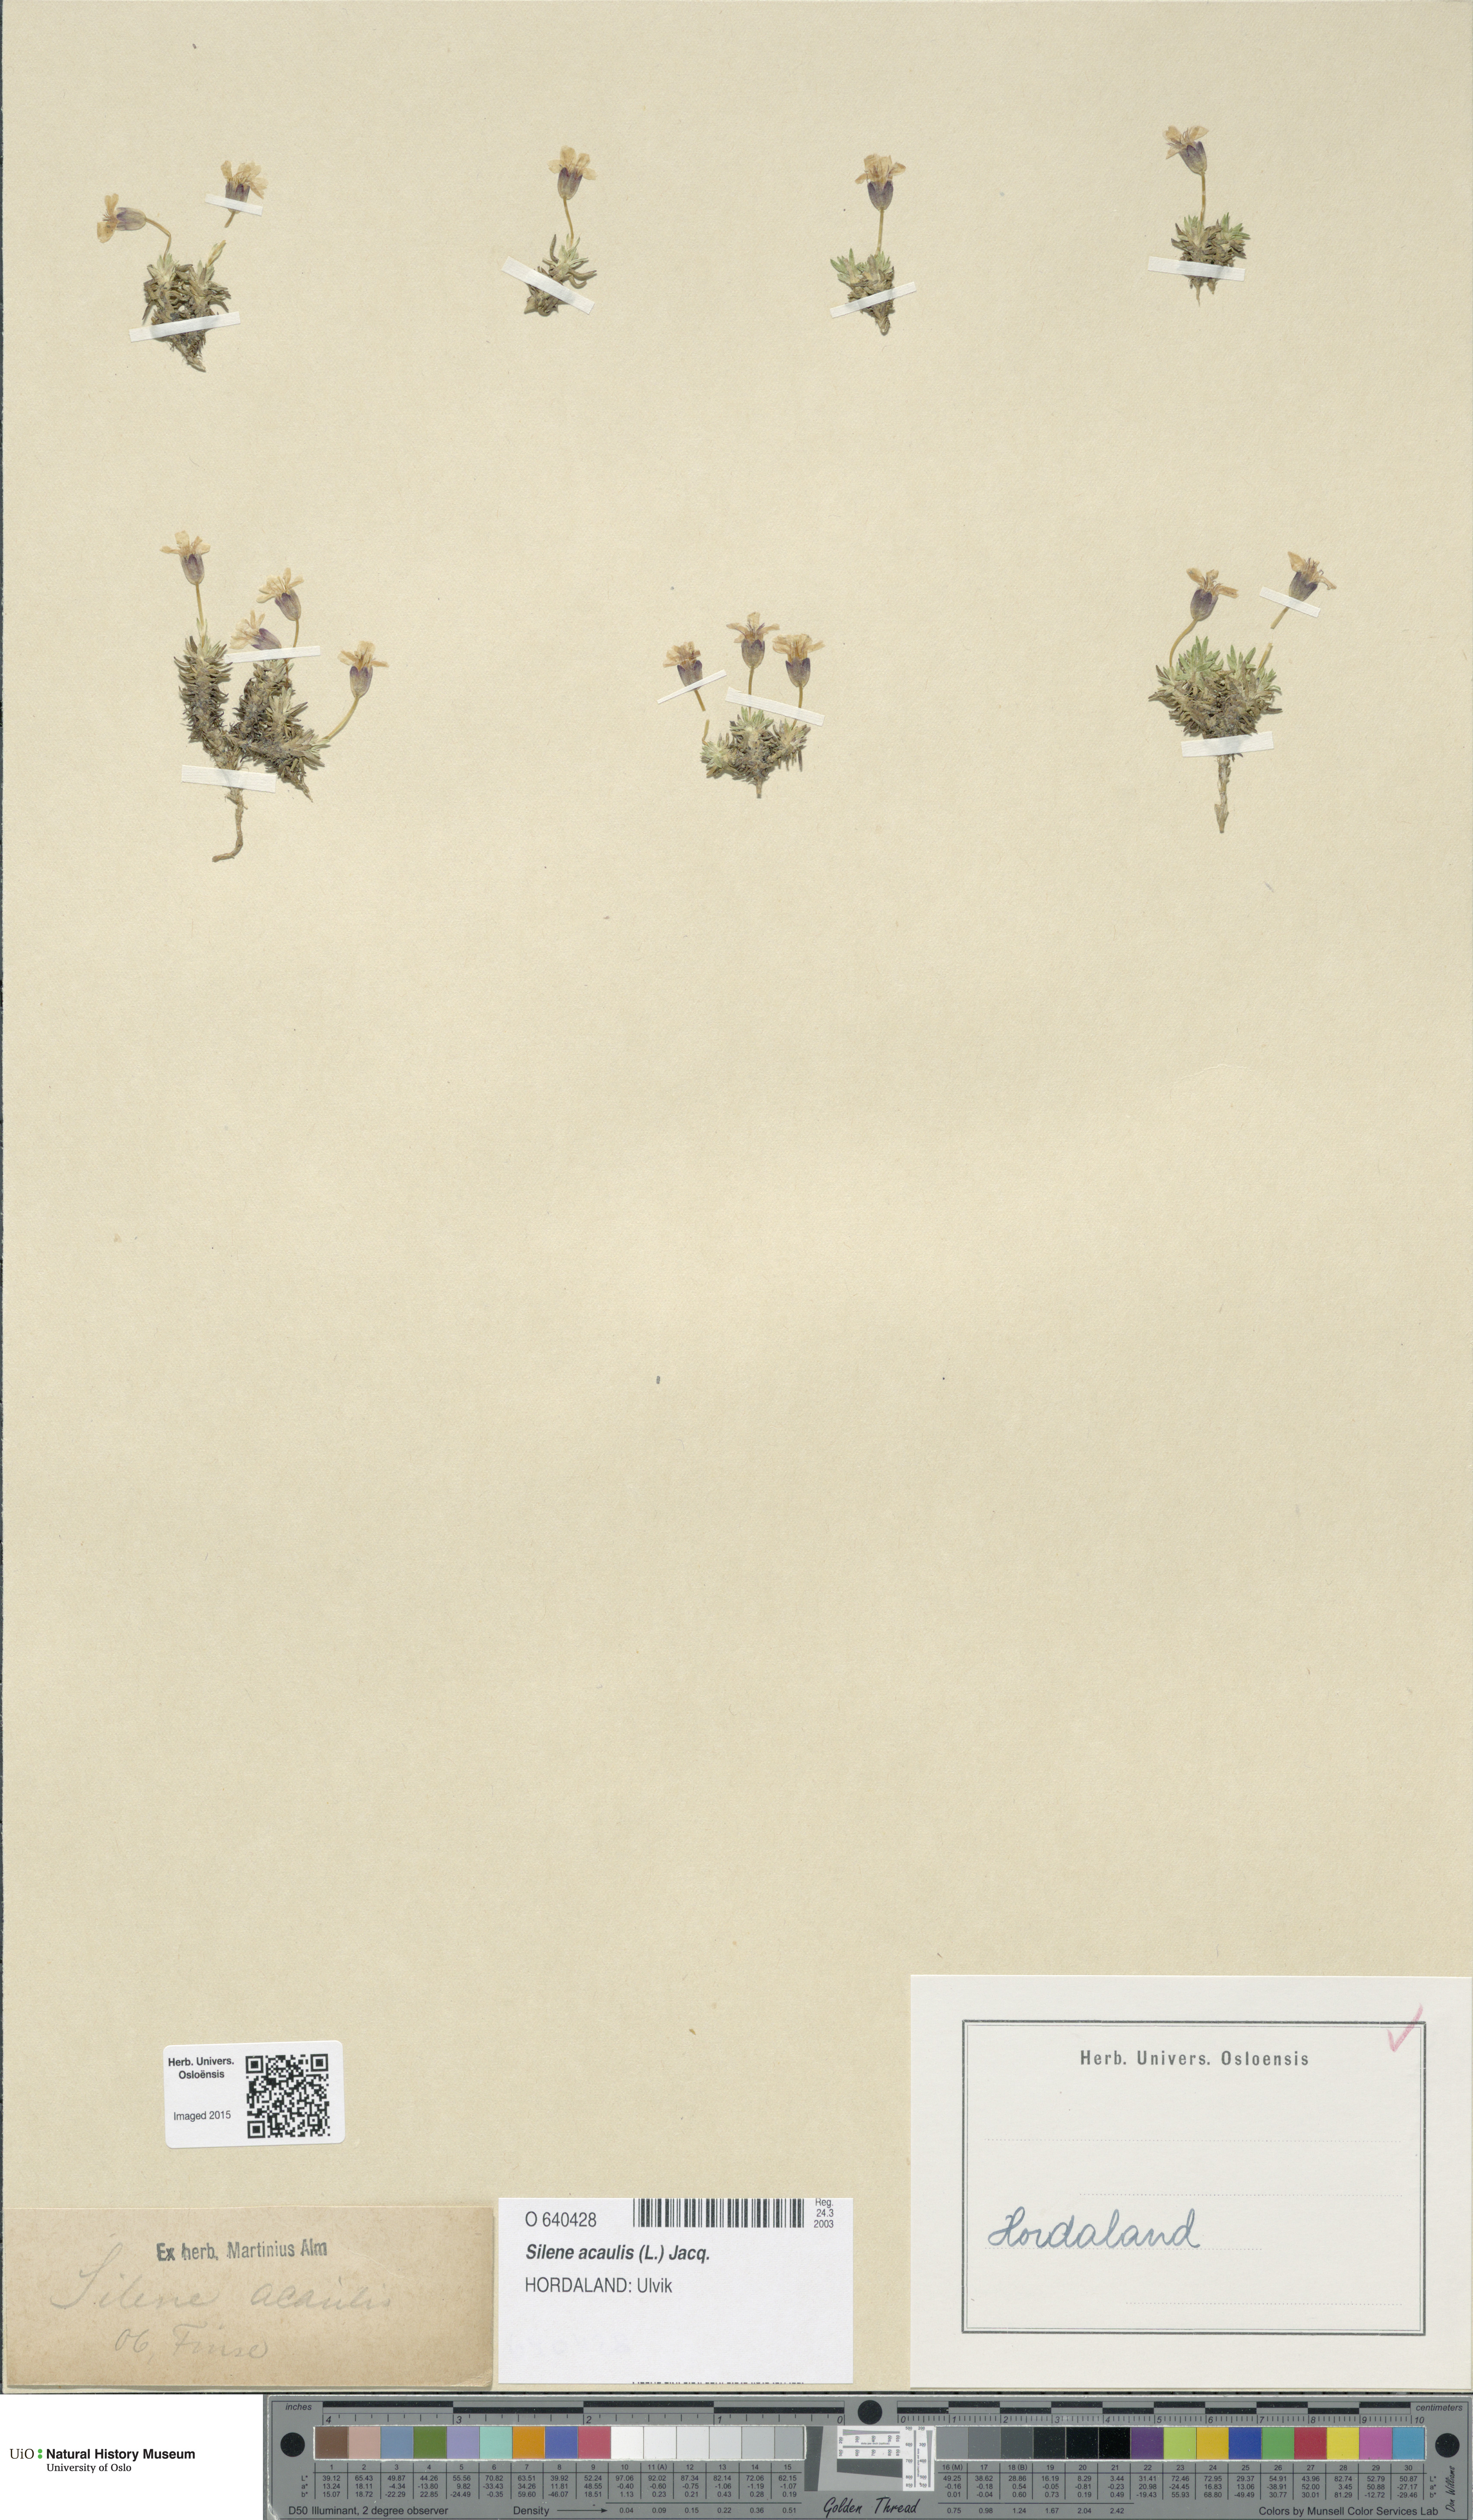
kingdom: Plantae
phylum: Tracheophyta
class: Magnoliopsida
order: Caryophyllales
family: Caryophyllaceae
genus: Silene
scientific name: Silene acaulis
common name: Moss campion
